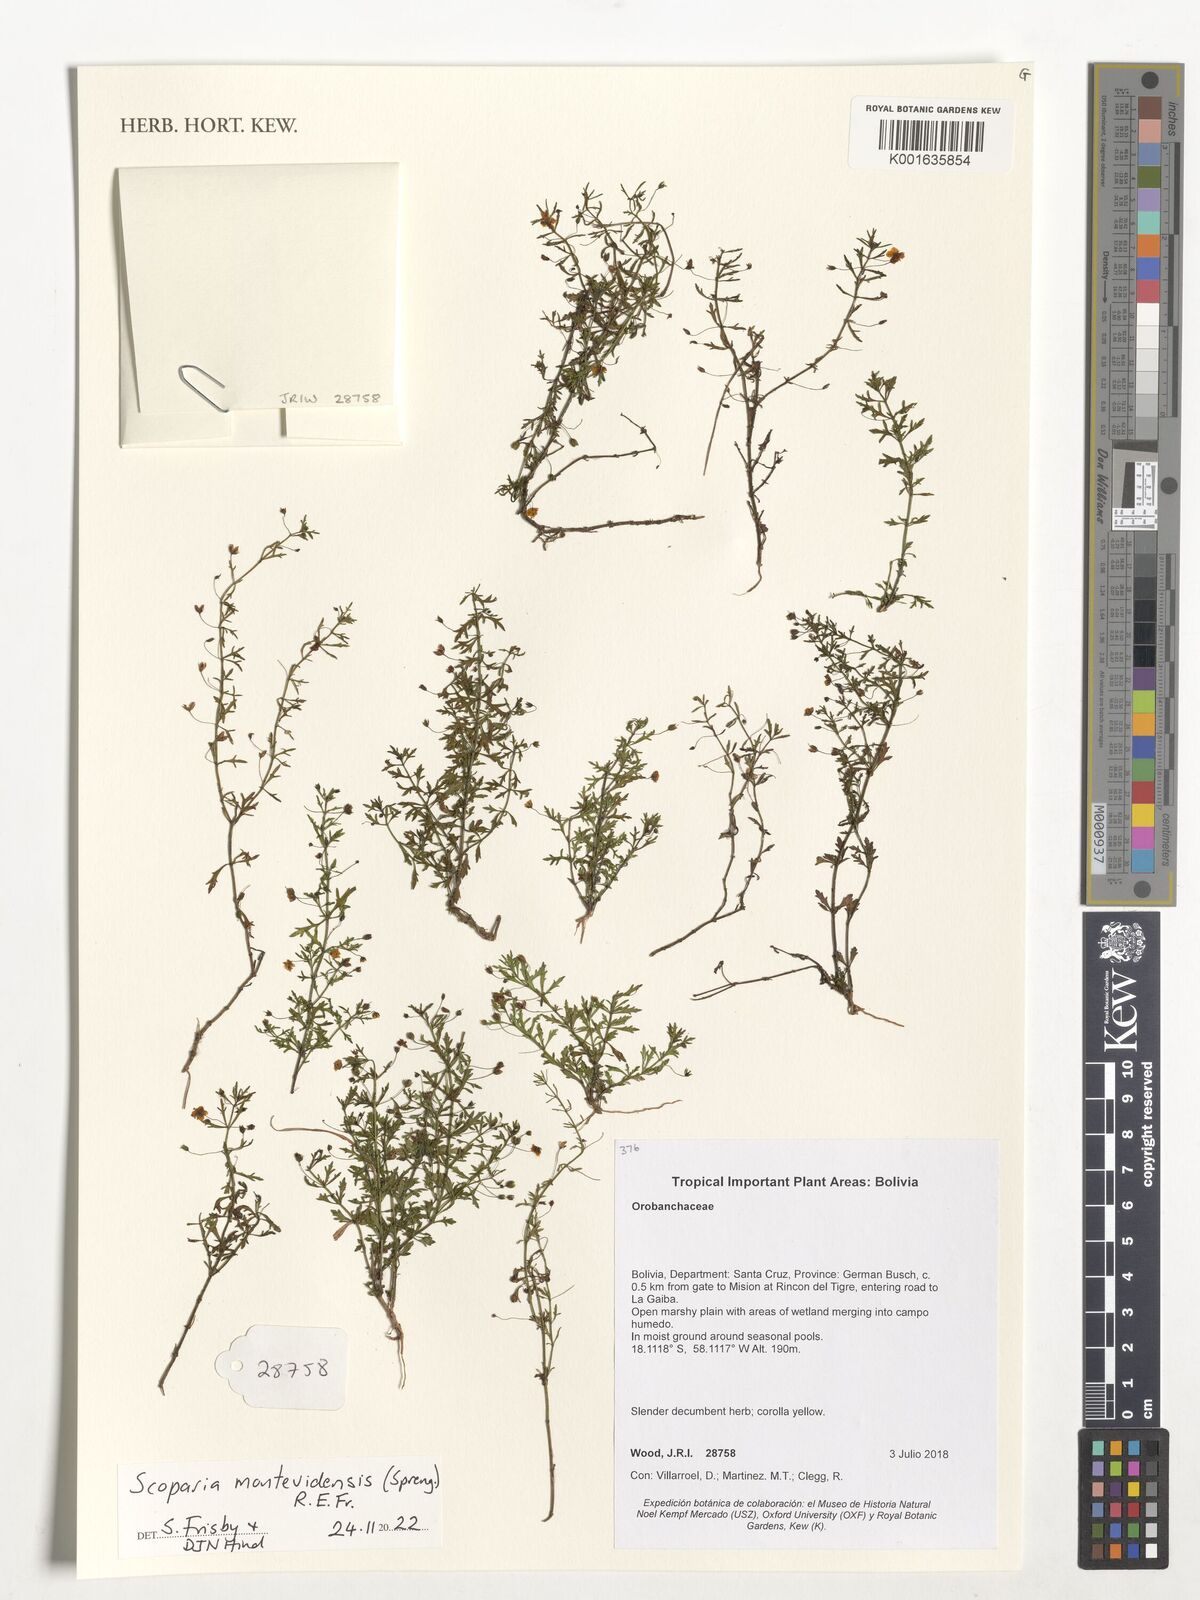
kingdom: Plantae
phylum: Tracheophyta
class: Magnoliopsida
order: Lamiales
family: Plantaginaceae
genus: Scoparia
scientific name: Scoparia montevidensis
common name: Broomwort
